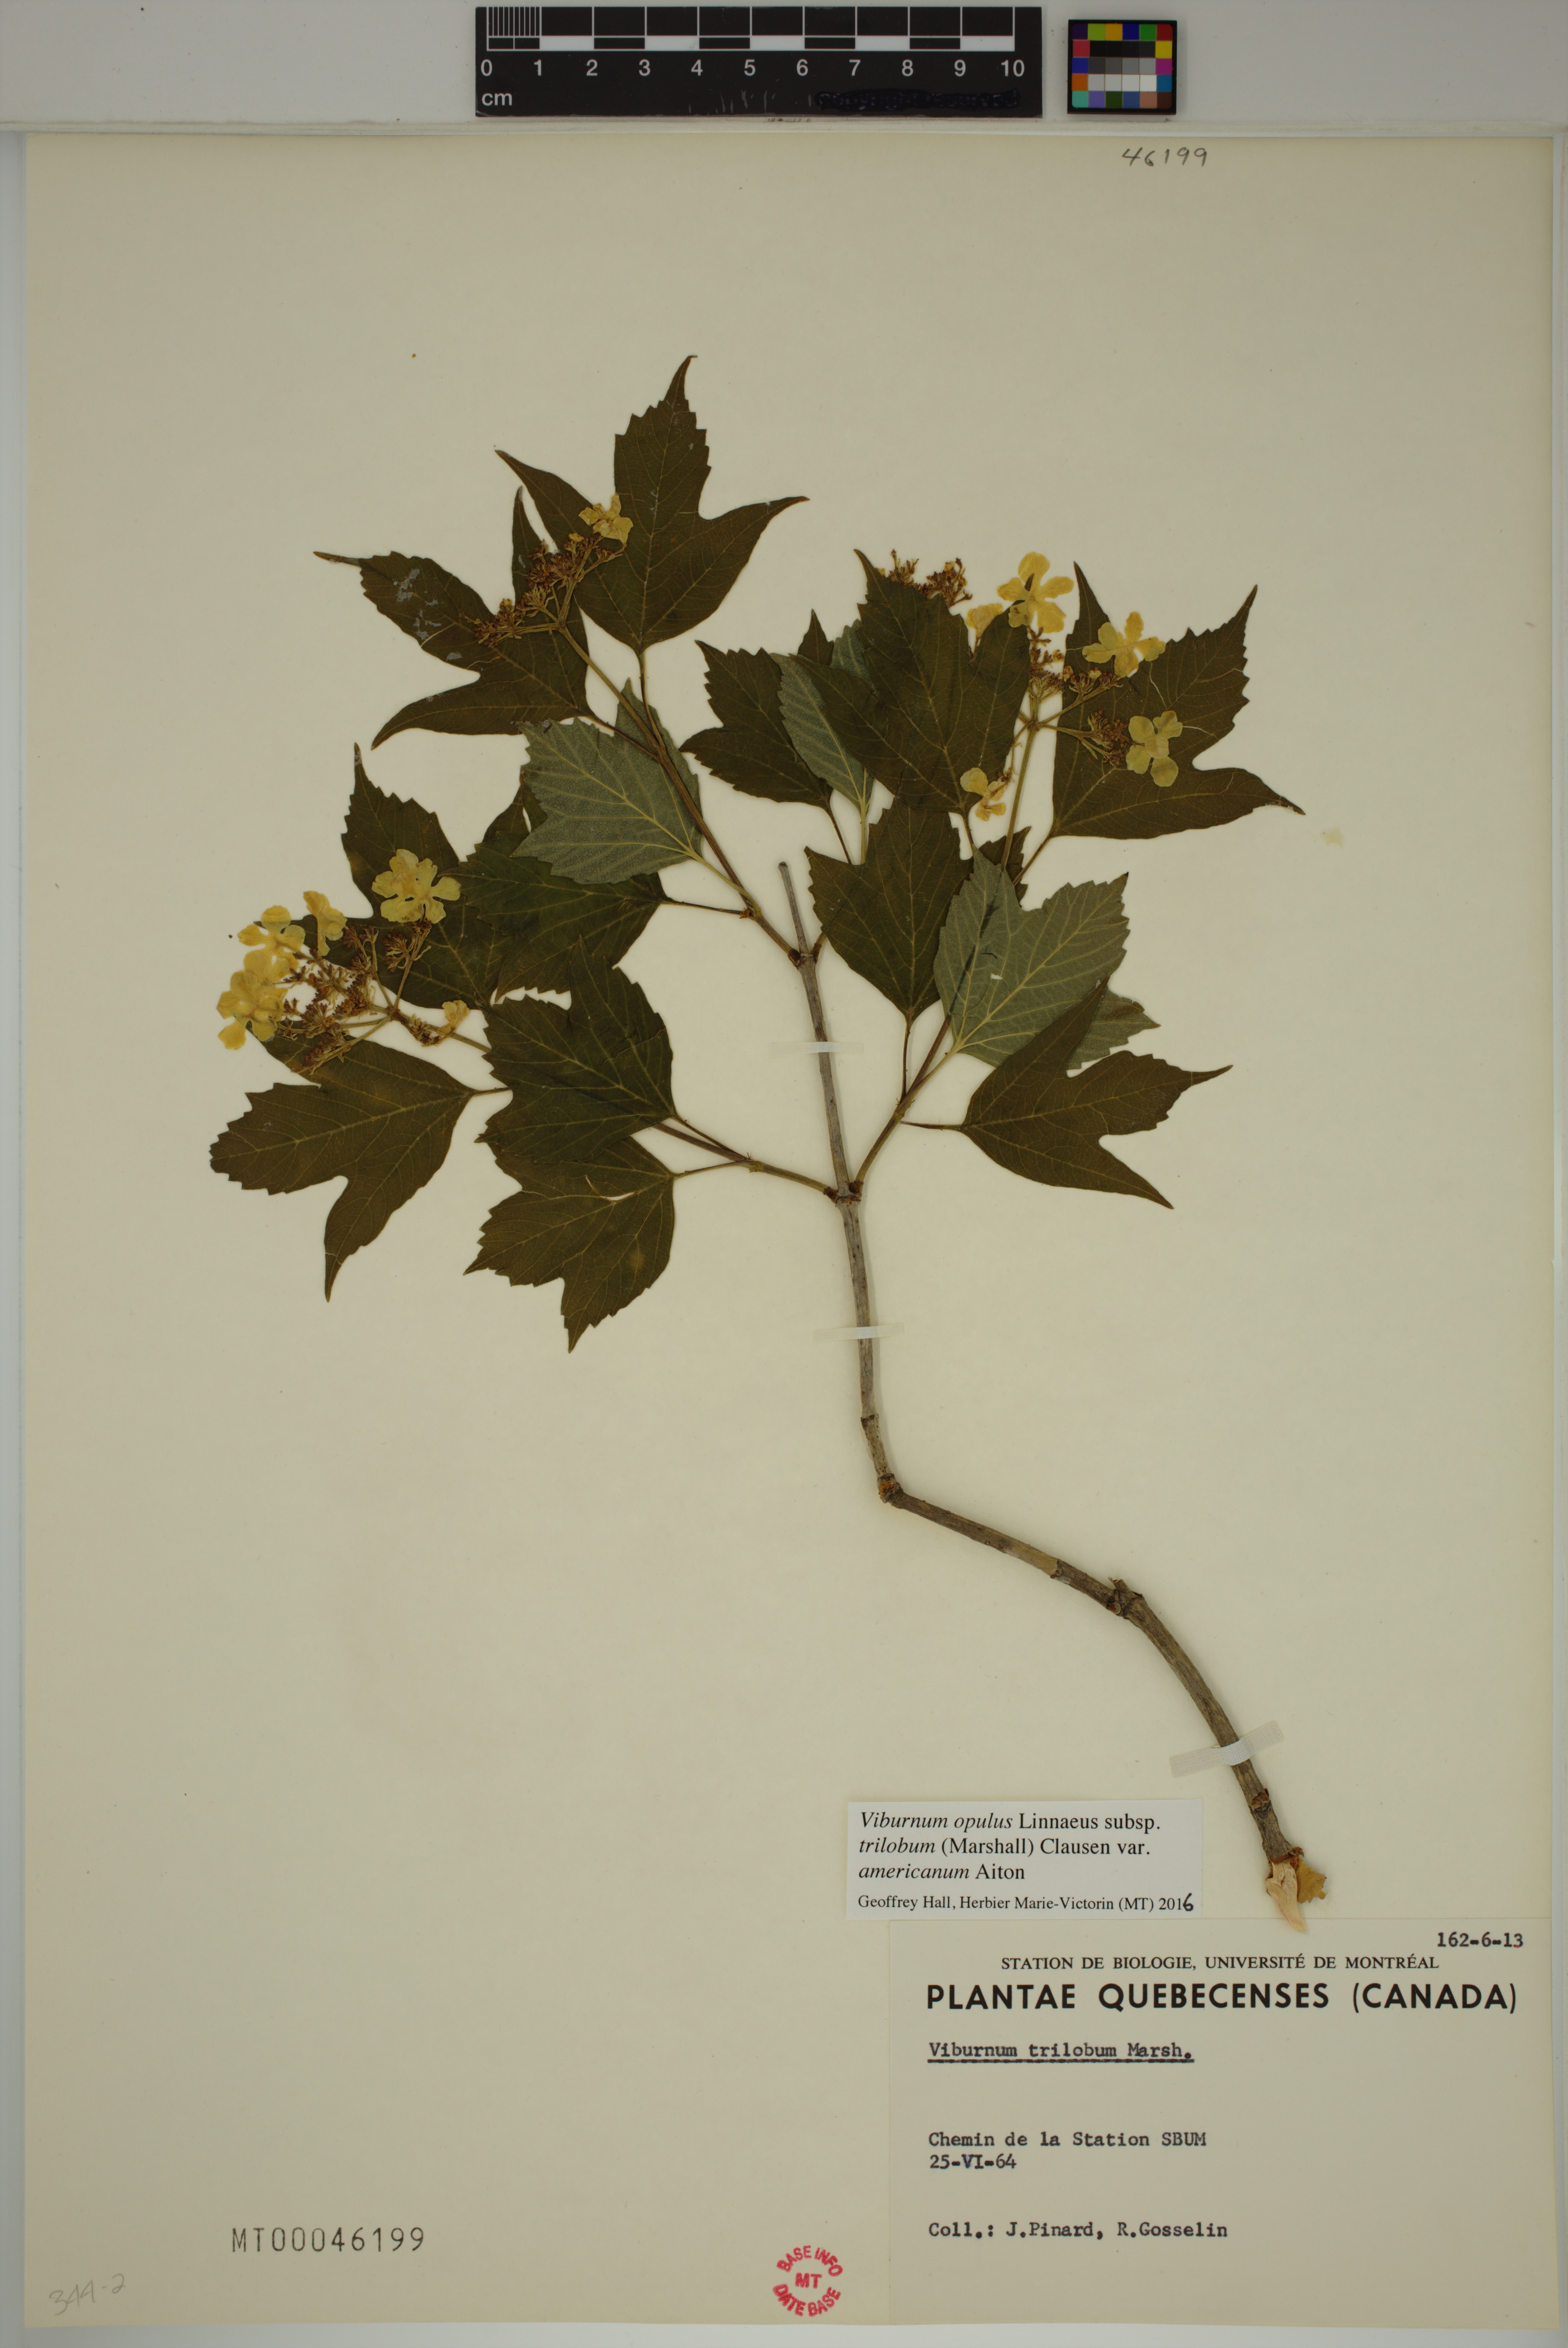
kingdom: Plantae
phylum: Tracheophyta
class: Magnoliopsida
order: Dipsacales
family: Viburnaceae
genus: Viburnum
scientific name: Viburnum trilobum
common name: American cranberrybush
